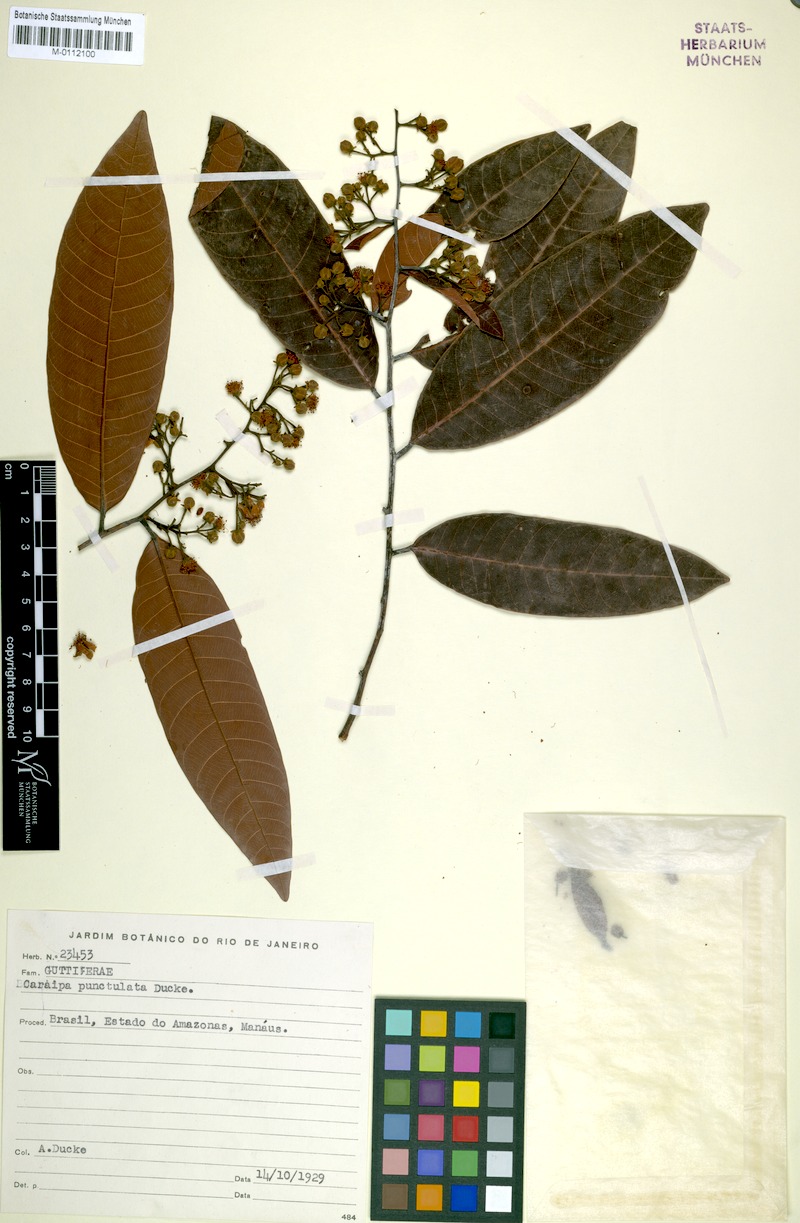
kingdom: Plantae
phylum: Tracheophyta
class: Magnoliopsida
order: Malpighiales
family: Calophyllaceae
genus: Caraipa
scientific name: Caraipa punctulata
